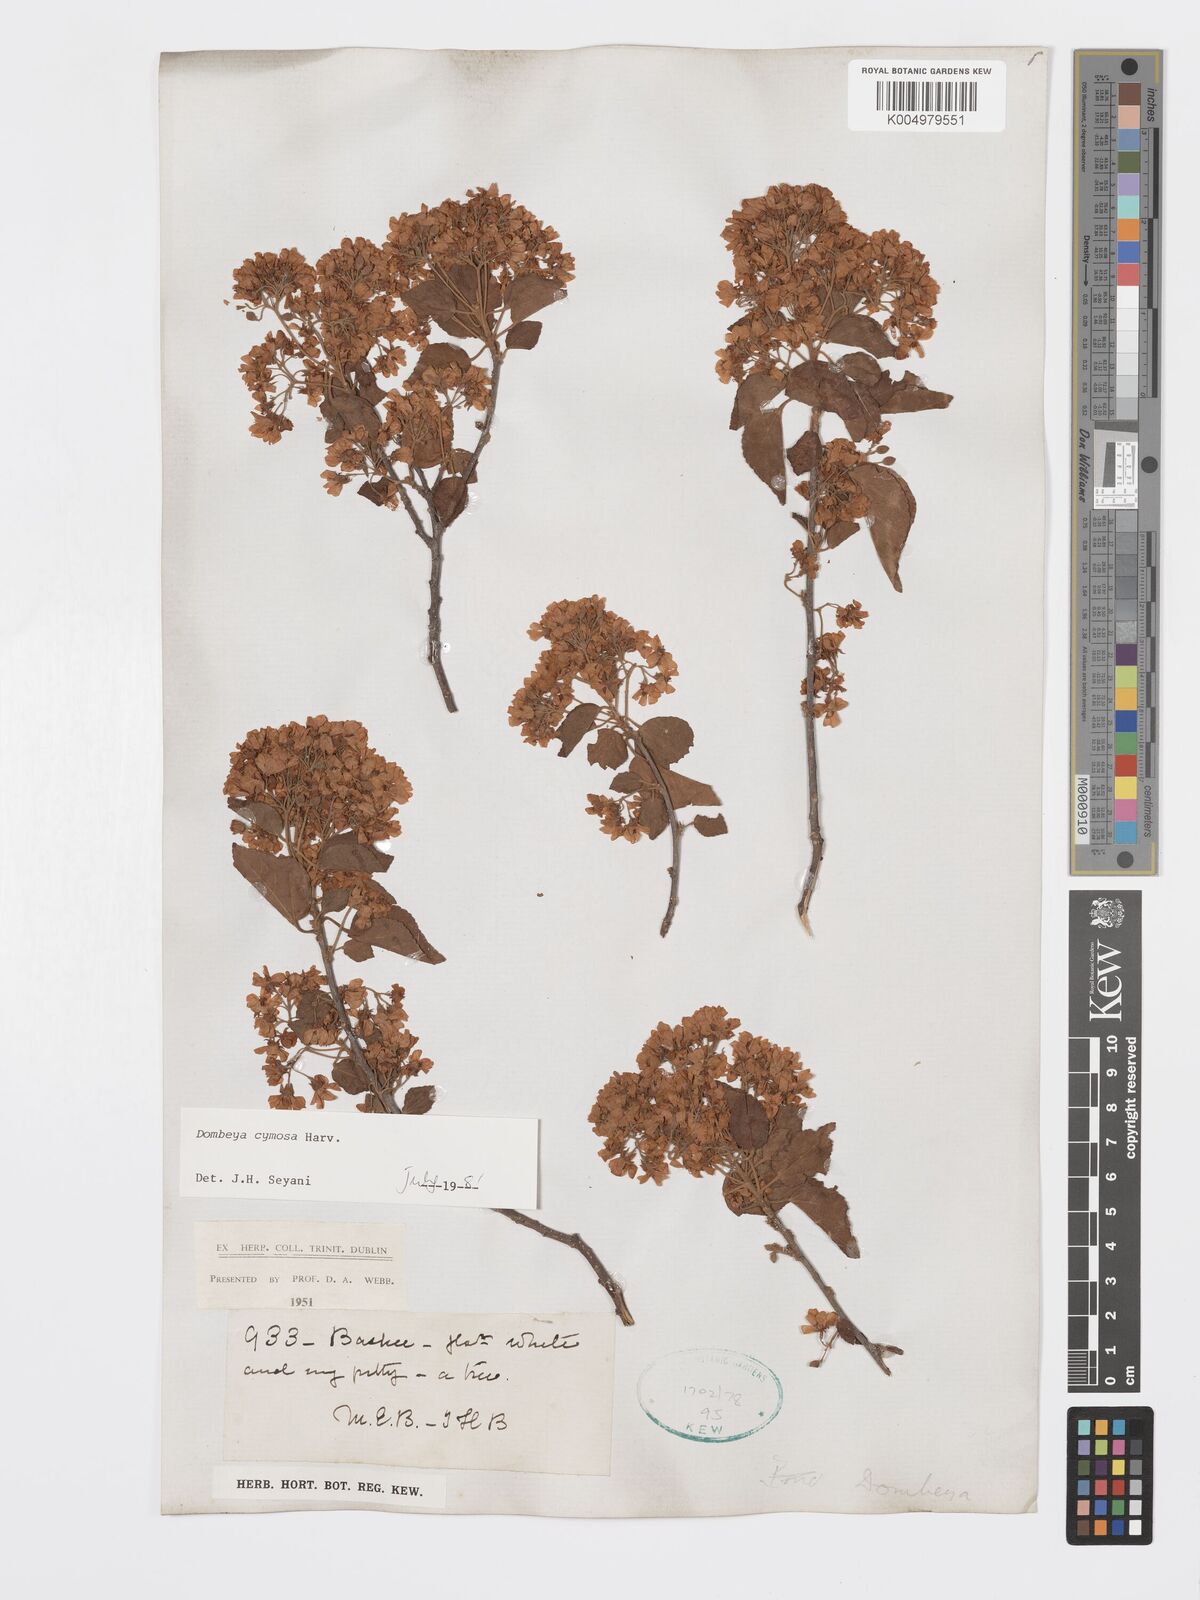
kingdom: Plantae
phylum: Tracheophyta
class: Magnoliopsida
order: Malvales
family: Malvaceae
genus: Dombeya
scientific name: Dombeya cymosa
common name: Hairless dombeya
